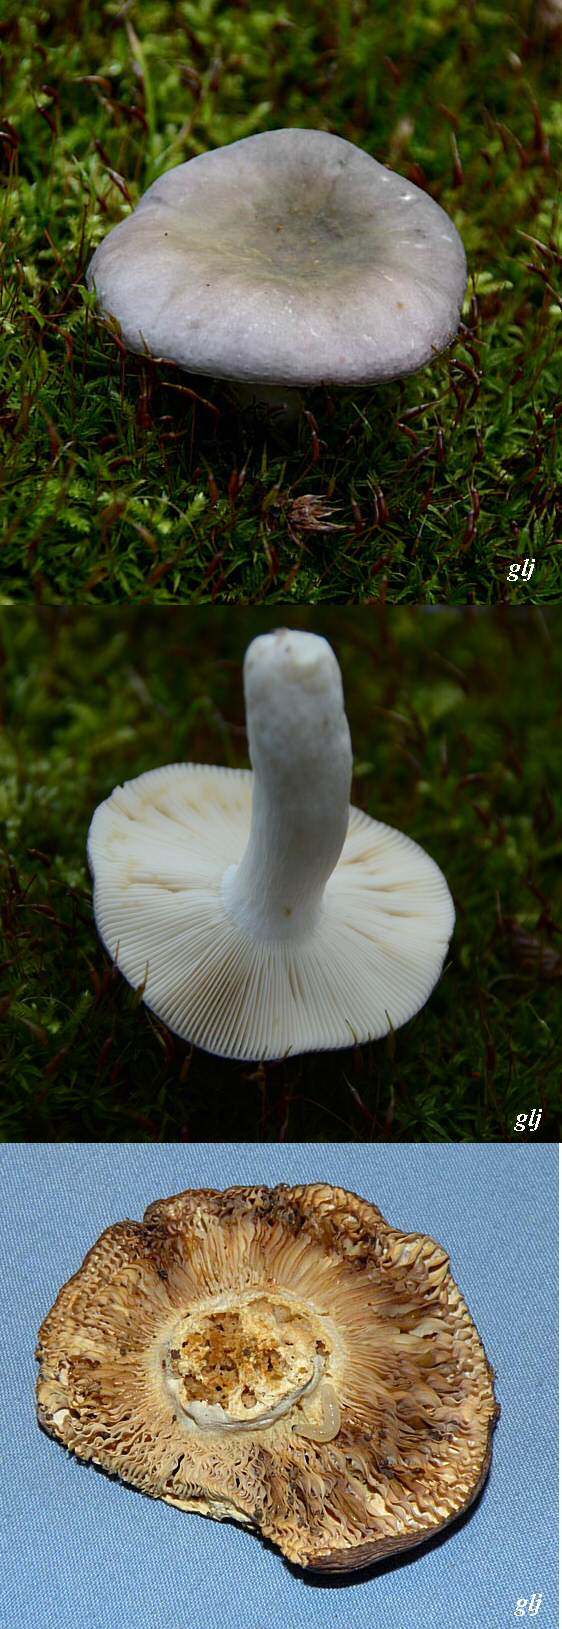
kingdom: Fungi
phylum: Basidiomycota
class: Agaricomycetes
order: Russulales
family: Russulaceae
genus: Russula
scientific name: Russula cyanoxantha
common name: broget skørhat
